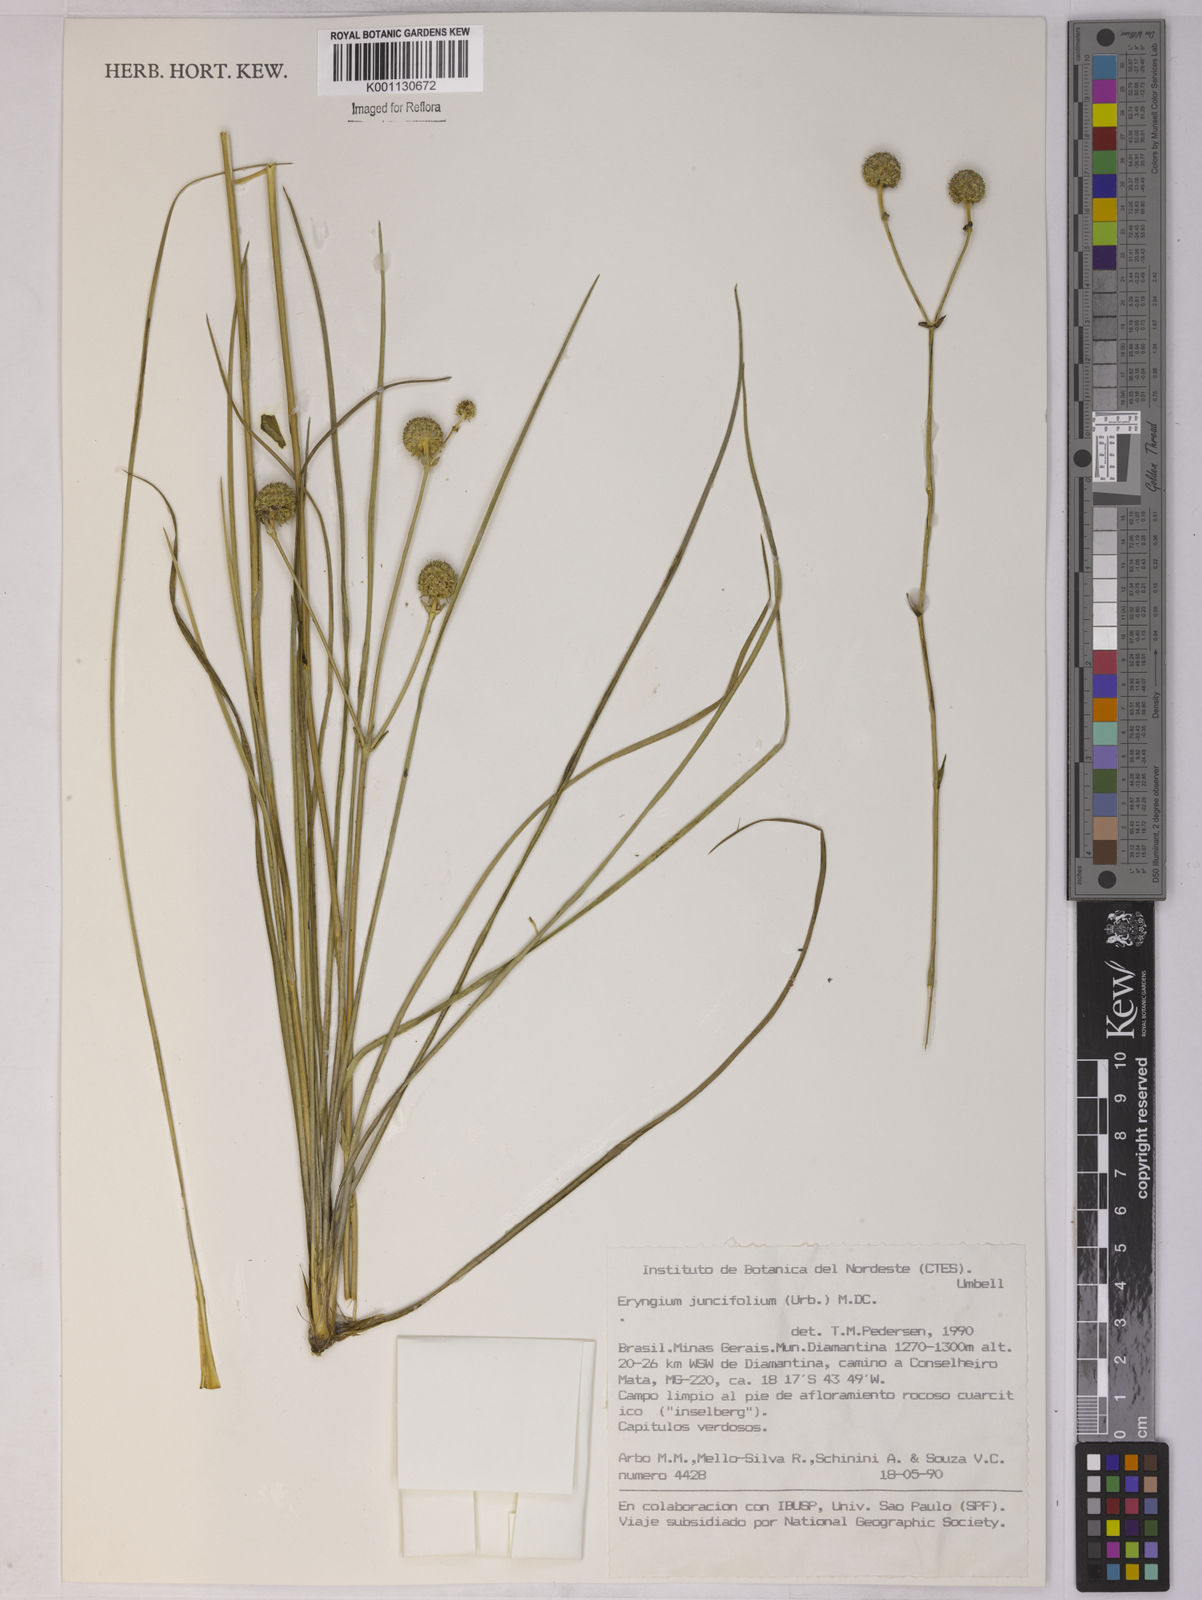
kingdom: Plantae
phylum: Tracheophyta
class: Magnoliopsida
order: Apiales
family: Apiaceae
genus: Eryngium
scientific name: Eryngium juncifolium
